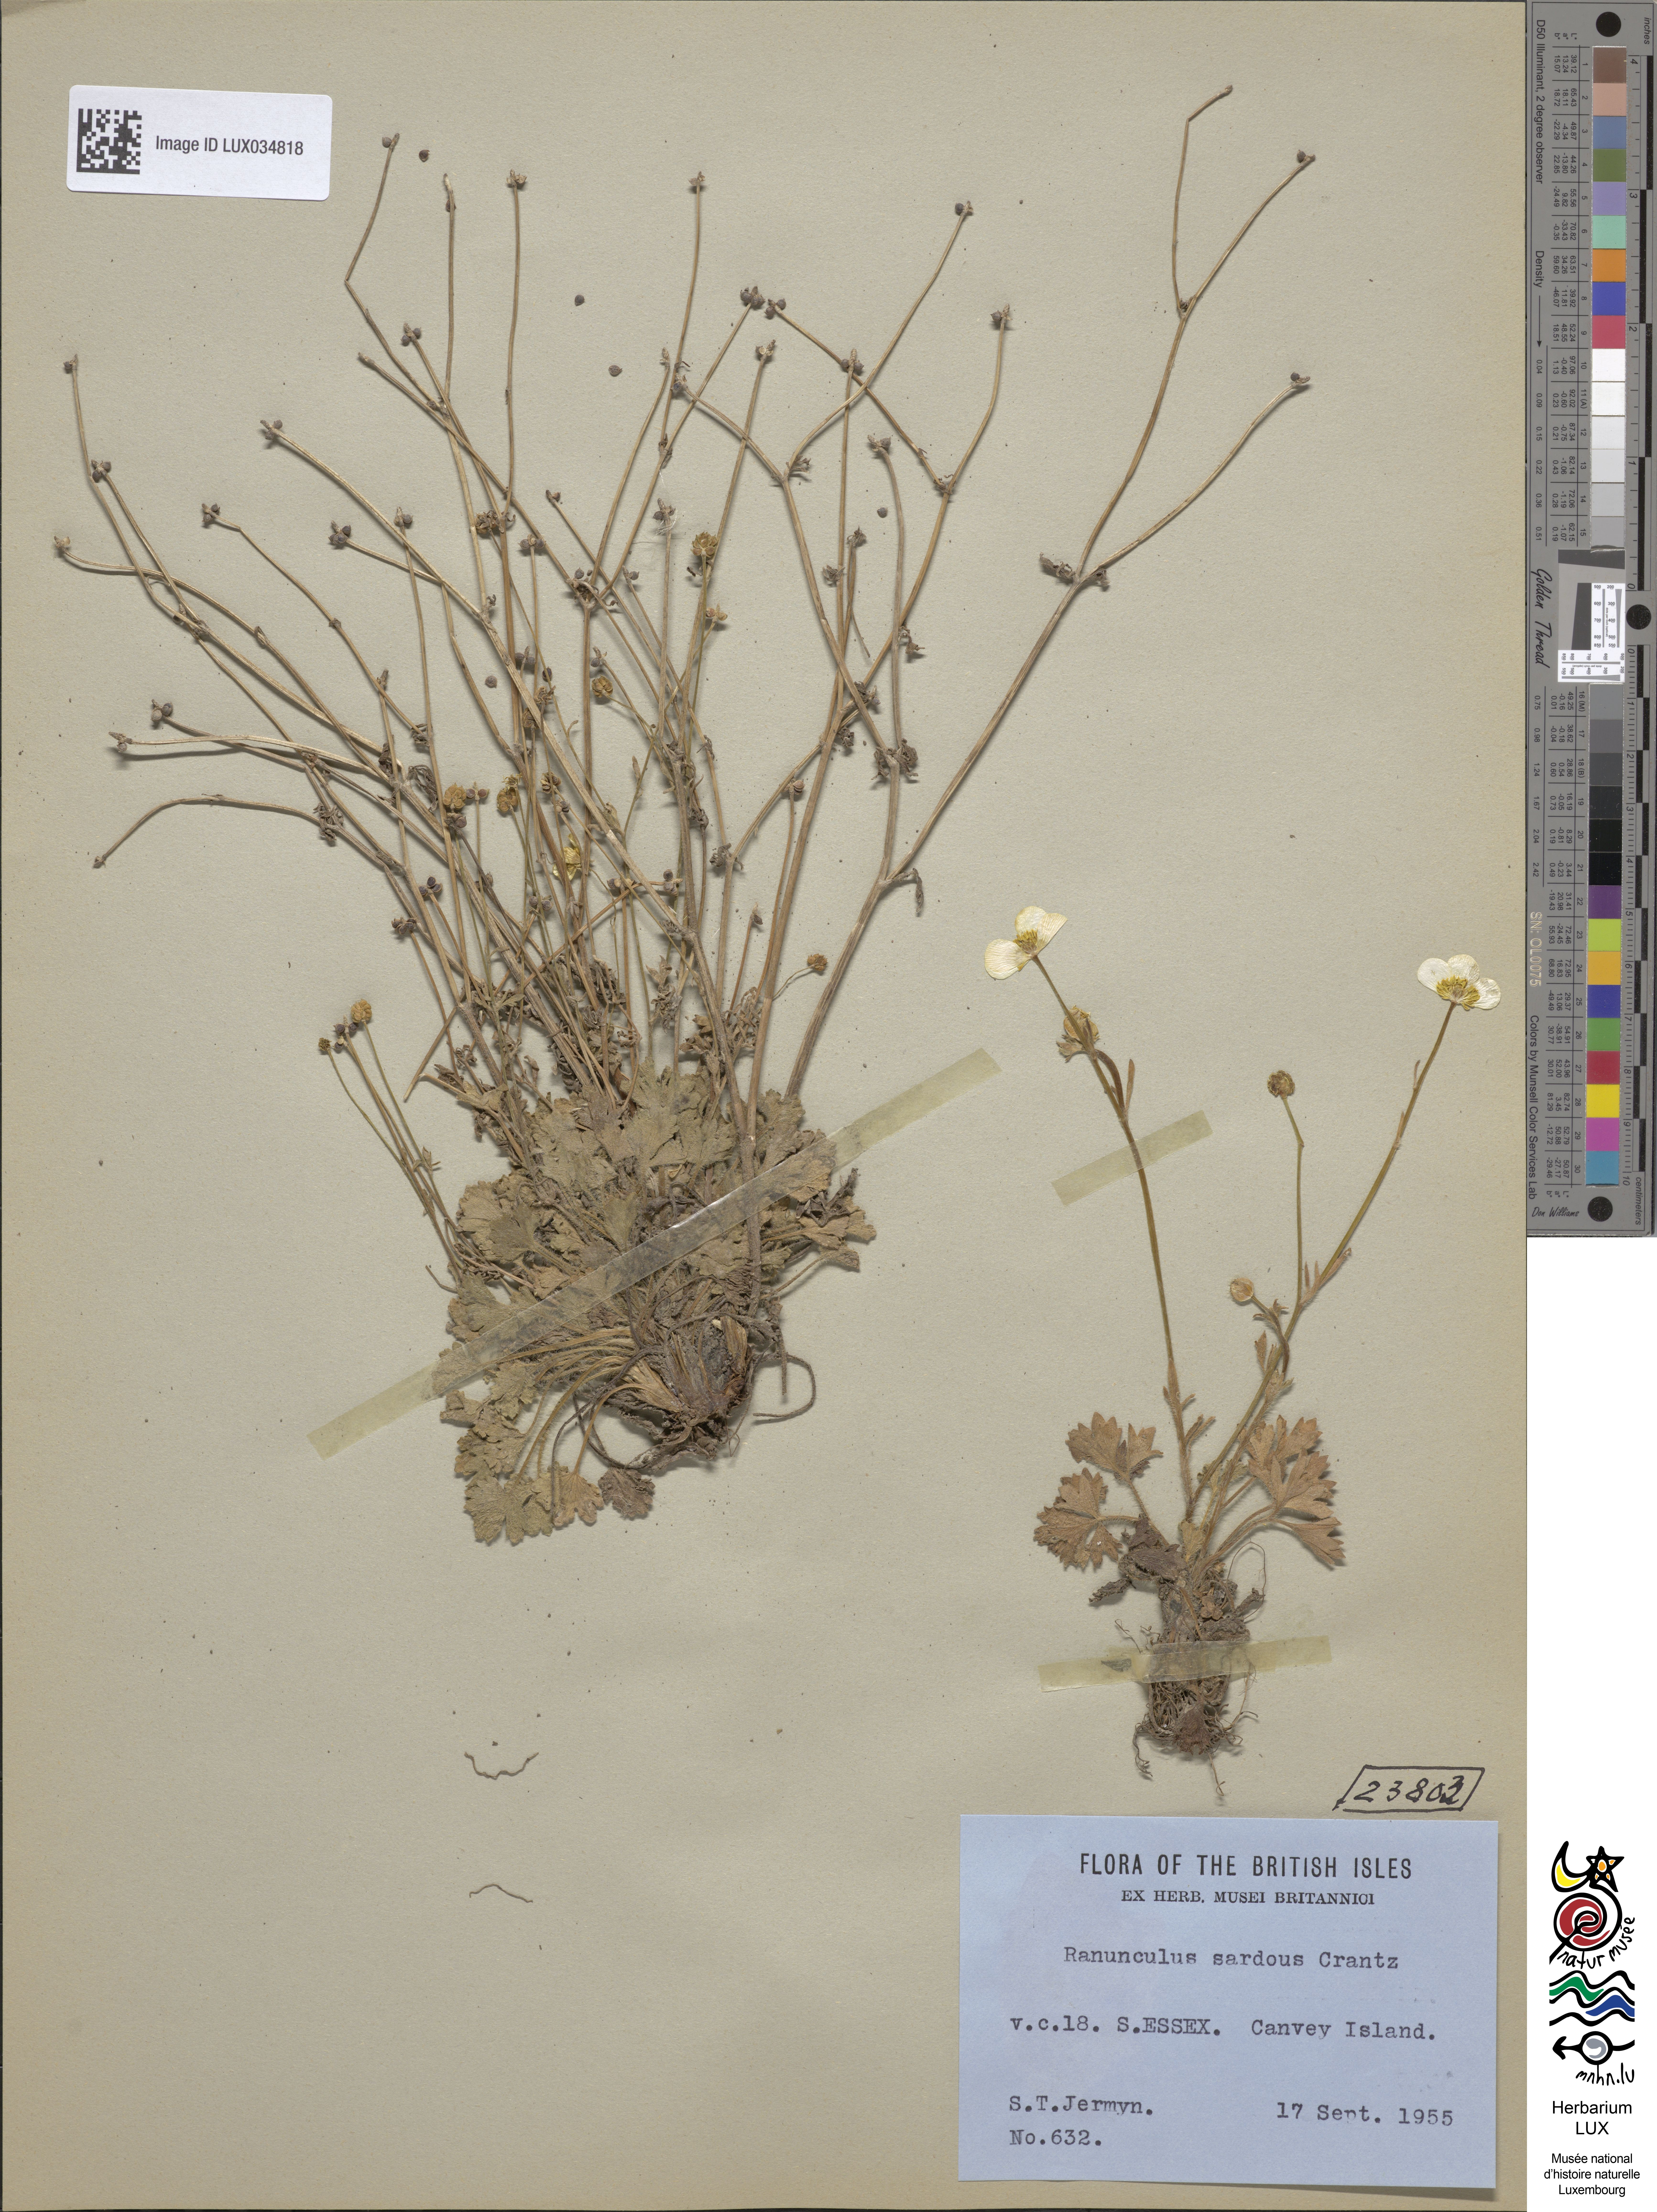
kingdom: Plantae
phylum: Tracheophyta
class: Magnoliopsida
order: Ranunculales
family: Ranunculaceae
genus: Ranunculus
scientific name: Ranunculus sardous
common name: Hairy buttercup
